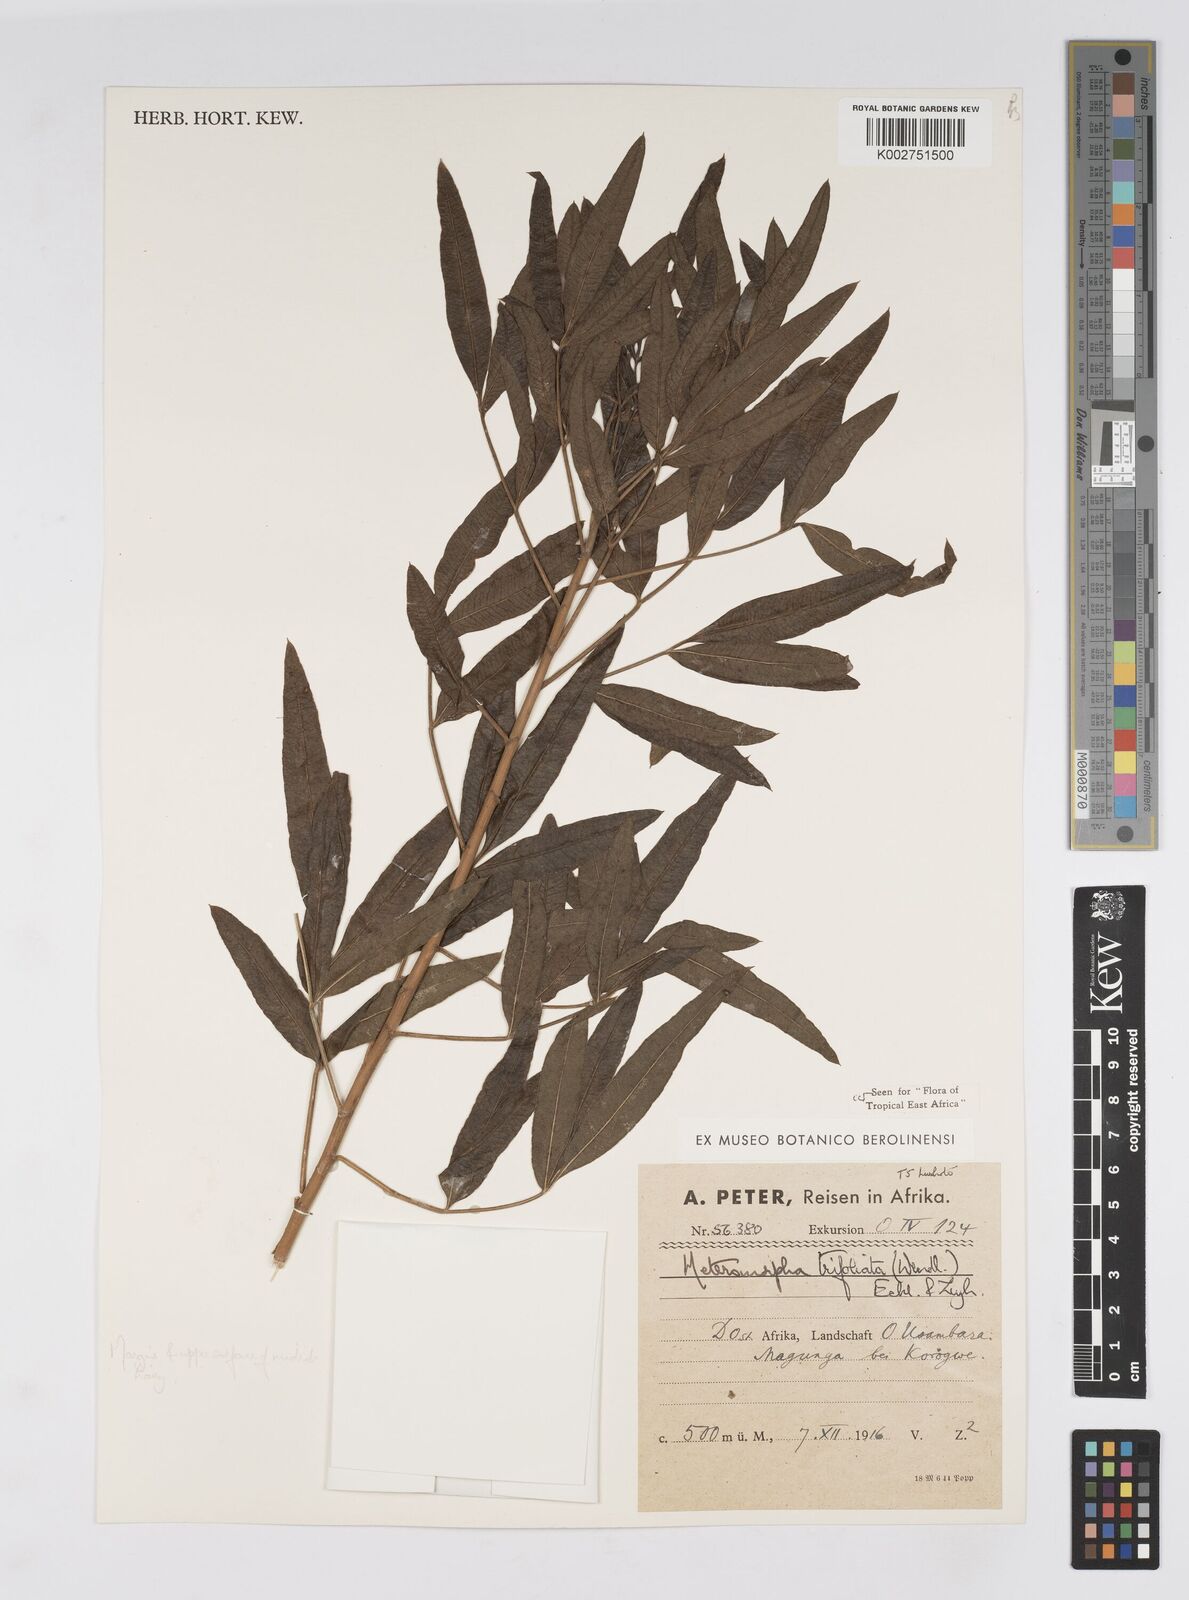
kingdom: Plantae
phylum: Tracheophyta
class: Magnoliopsida
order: Apiales
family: Apiaceae
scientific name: Apiaceae
